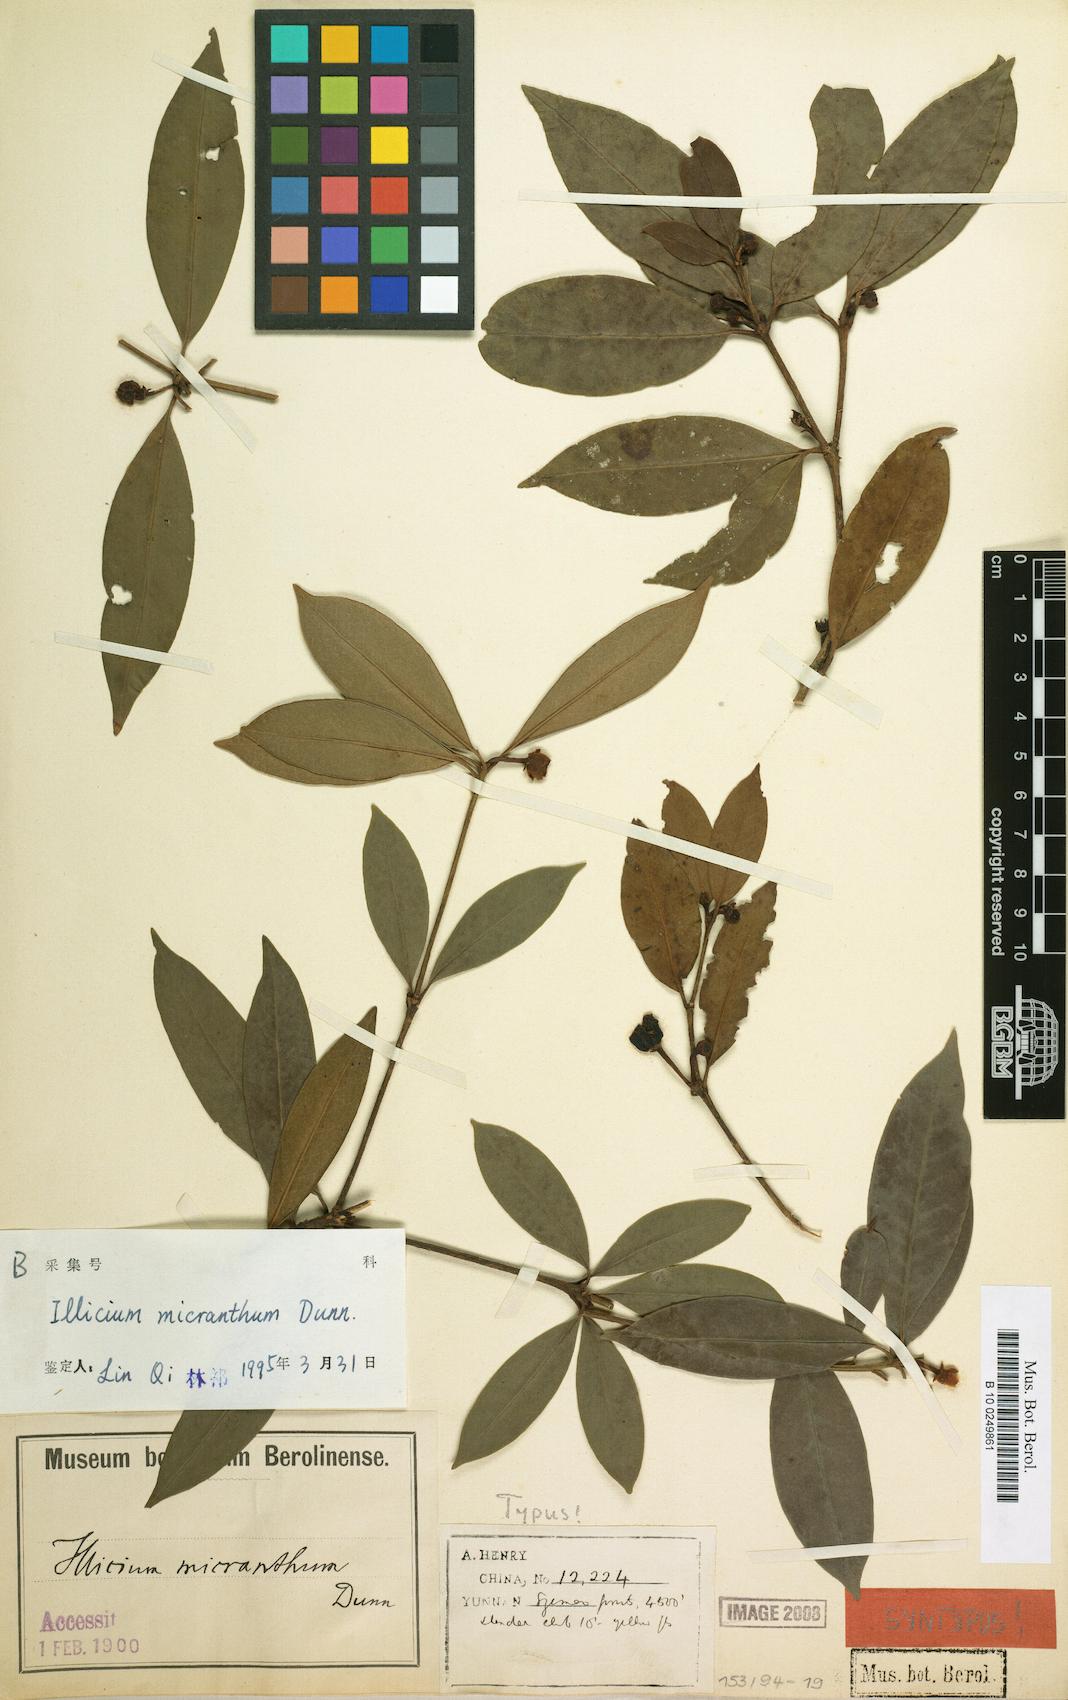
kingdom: Plantae
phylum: Tracheophyta
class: Magnoliopsida
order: Austrobaileyales
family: Schisandraceae
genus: Illicium
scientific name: Illicium micranthum
